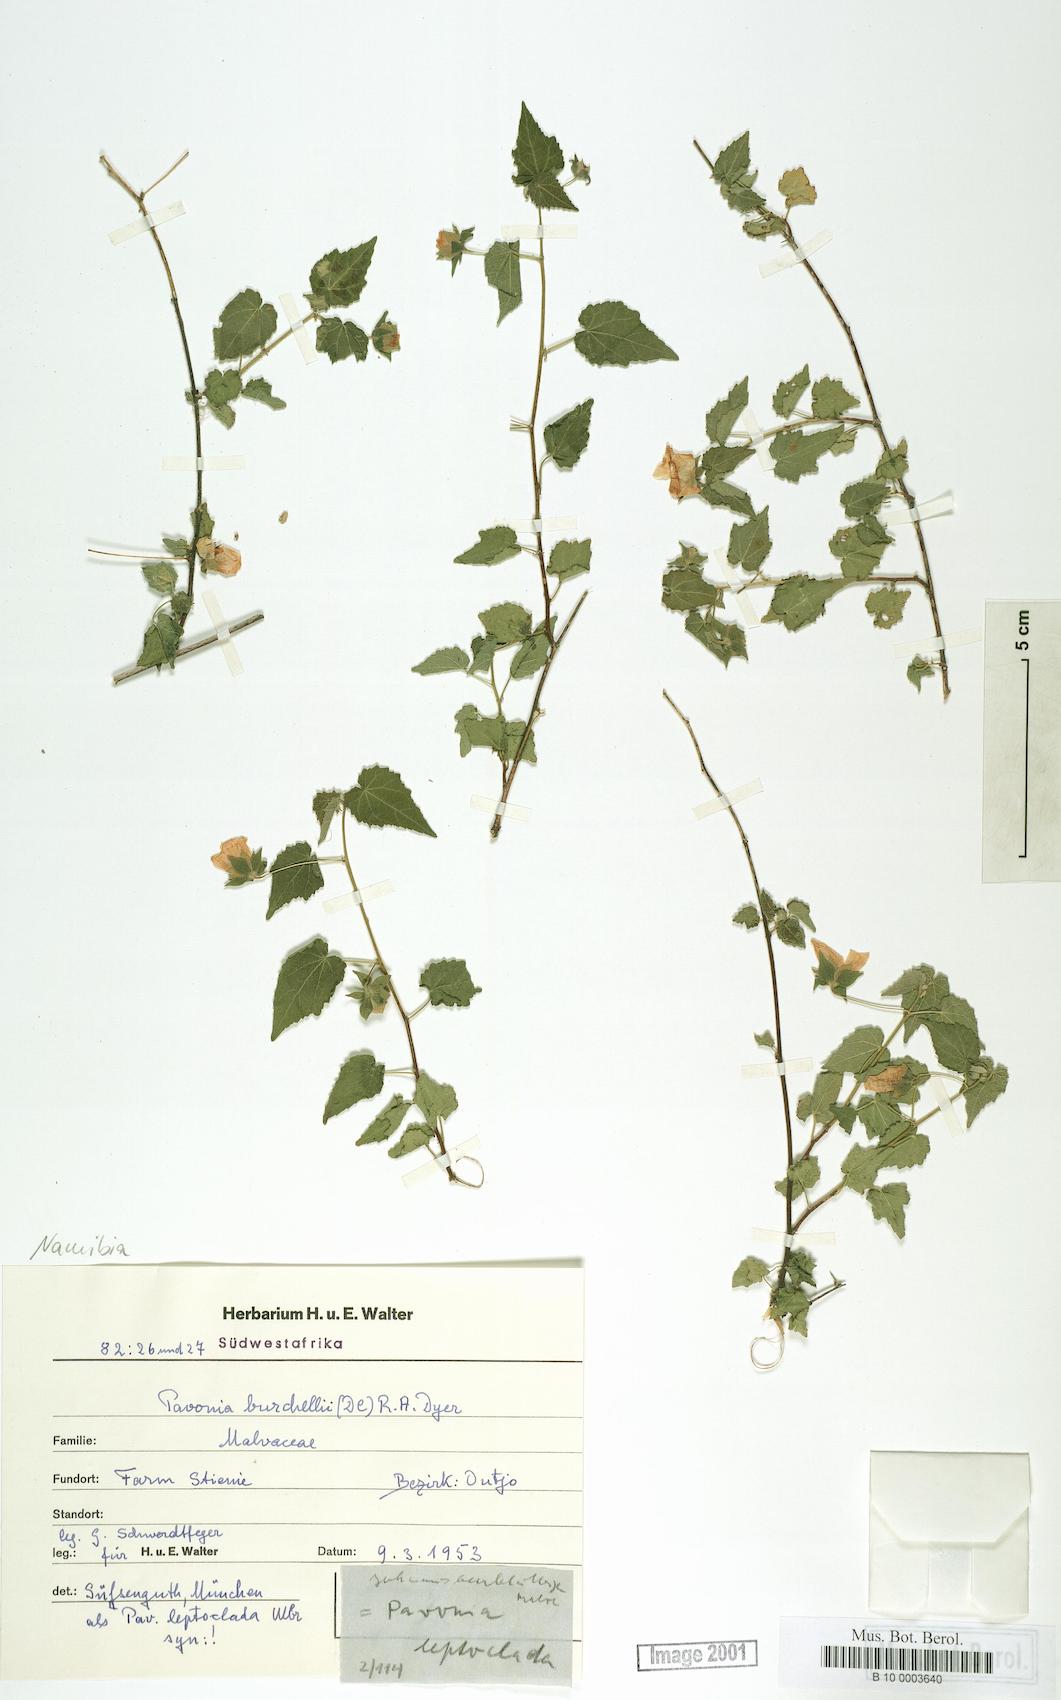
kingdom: Plantae
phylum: Tracheophyta
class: Magnoliopsida
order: Malvales
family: Malvaceae
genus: Pavonia
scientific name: Pavonia burchellii
